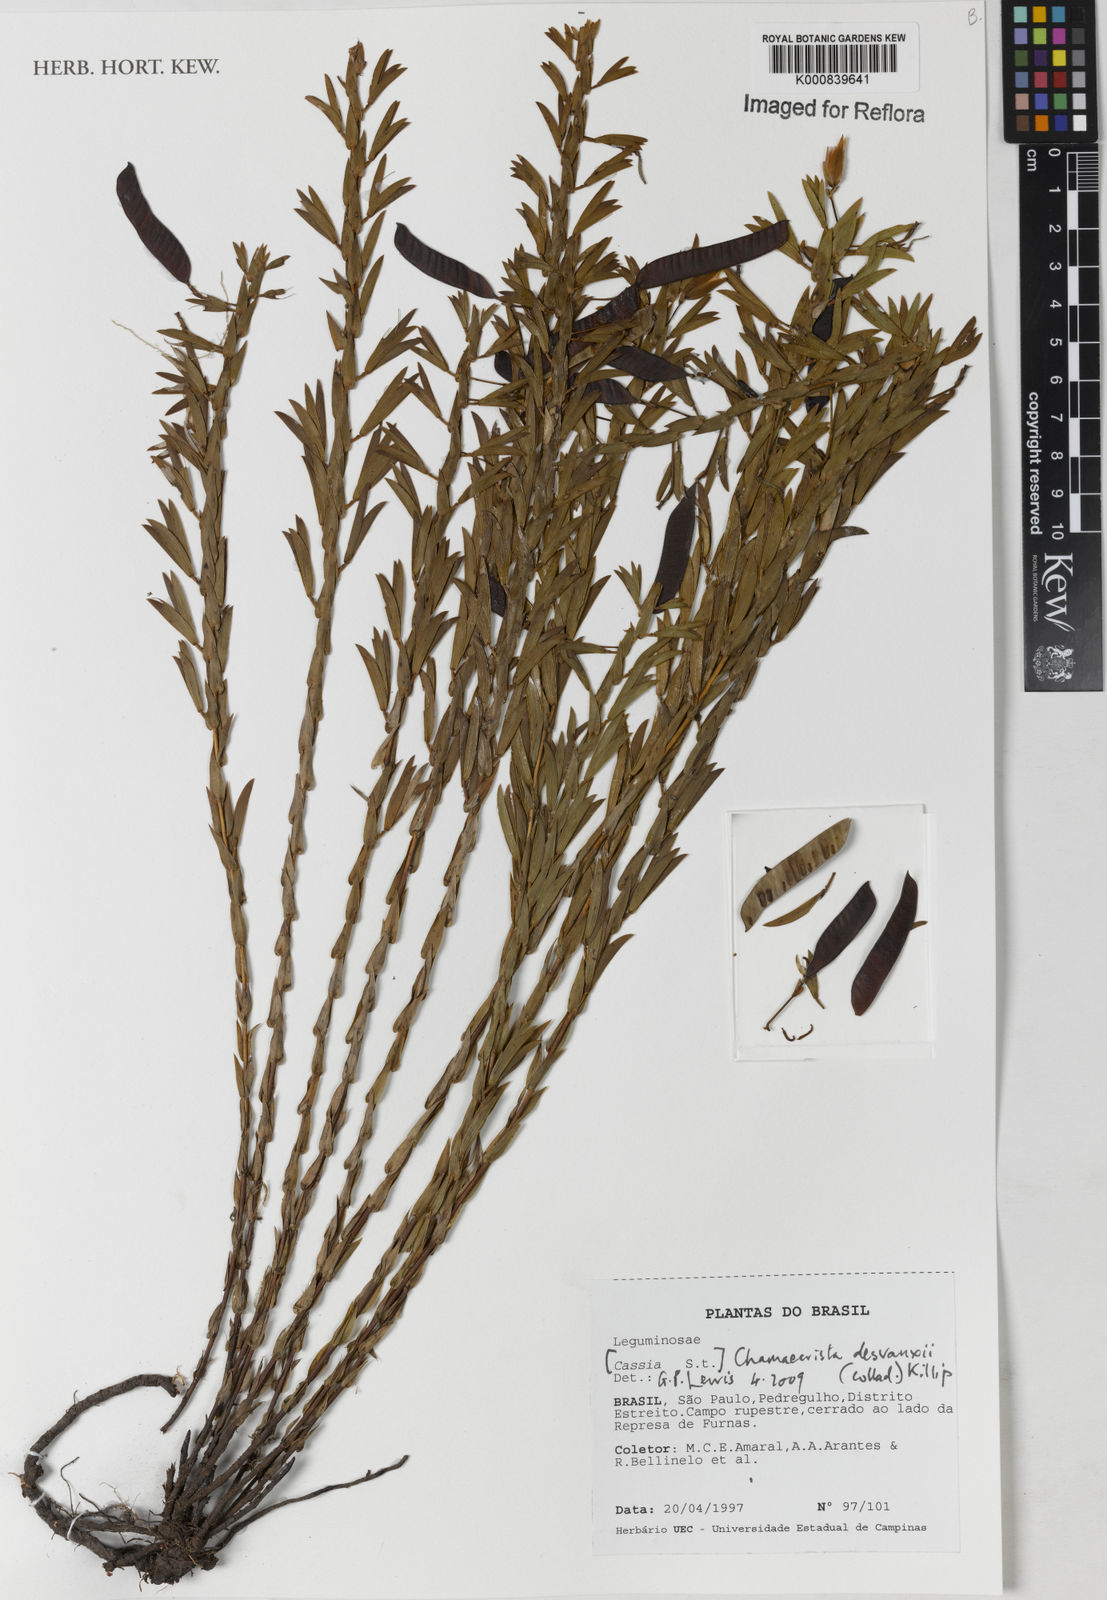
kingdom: Plantae
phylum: Tracheophyta
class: Magnoliopsida
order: Fabales
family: Fabaceae
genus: Chamaecrista
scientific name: Chamaecrista langsdorffii
